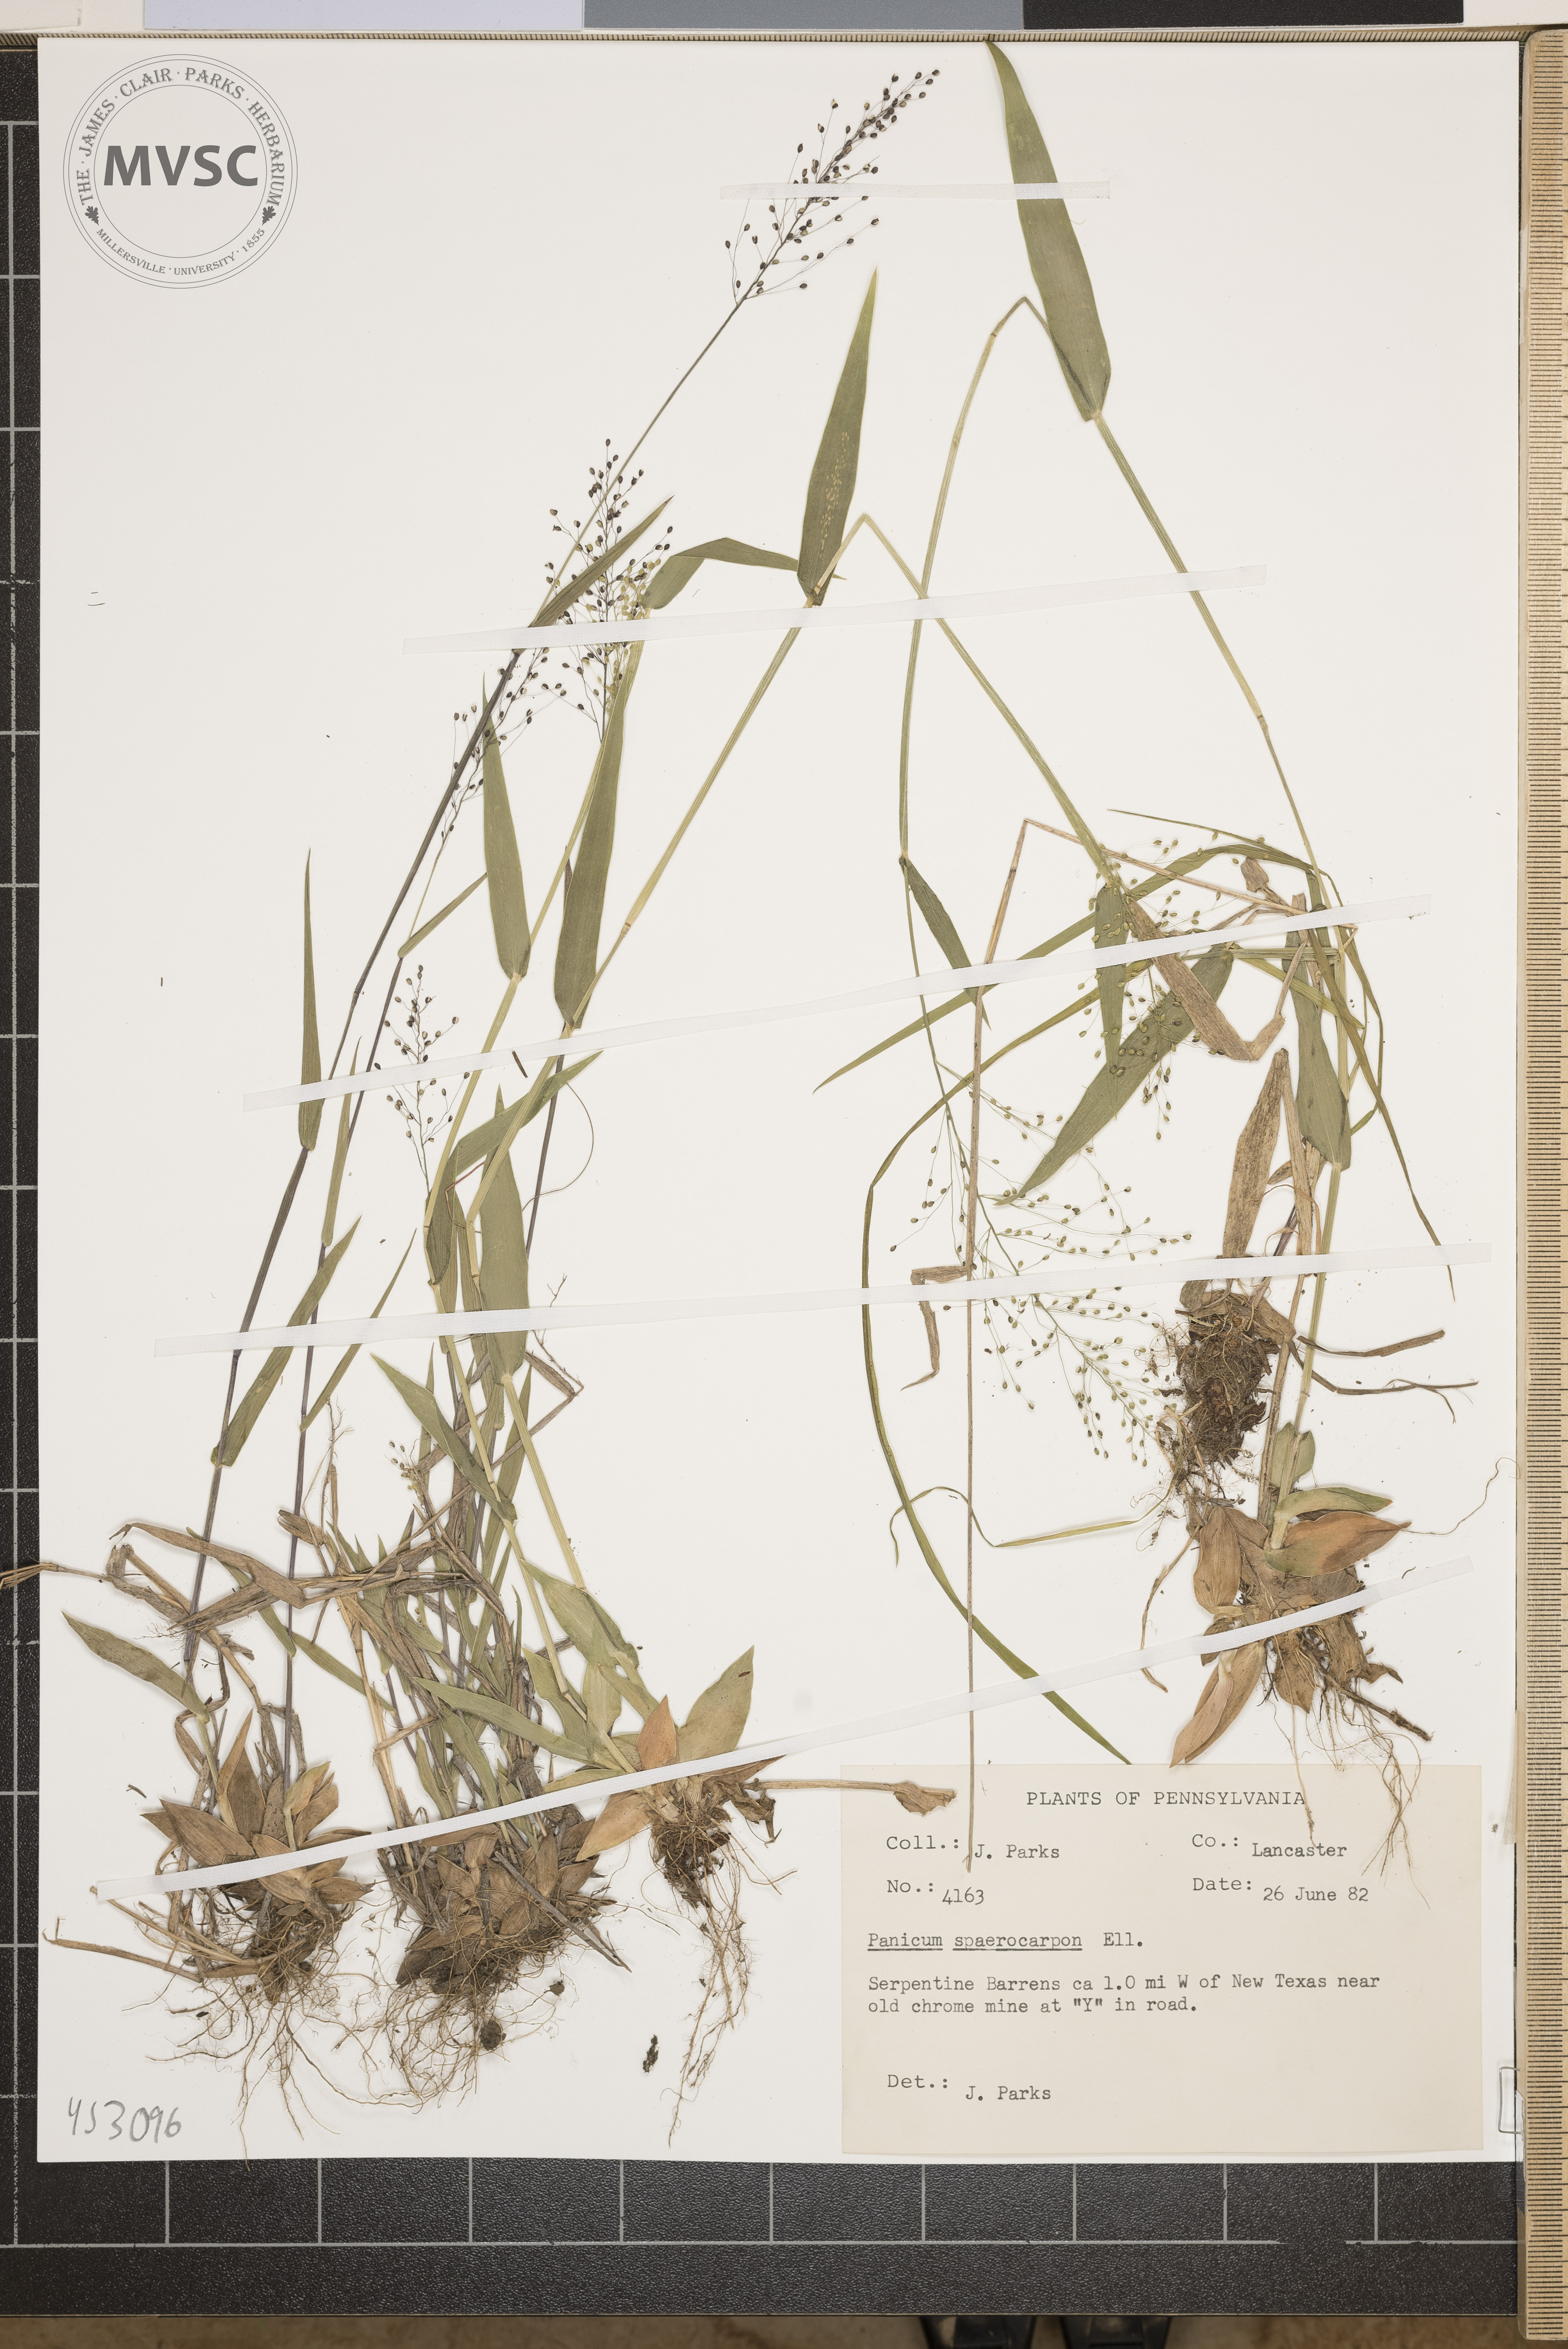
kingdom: Plantae
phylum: Tracheophyta
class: Liliopsida
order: Poales
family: Poaceae
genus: Panicum
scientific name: Panicum
